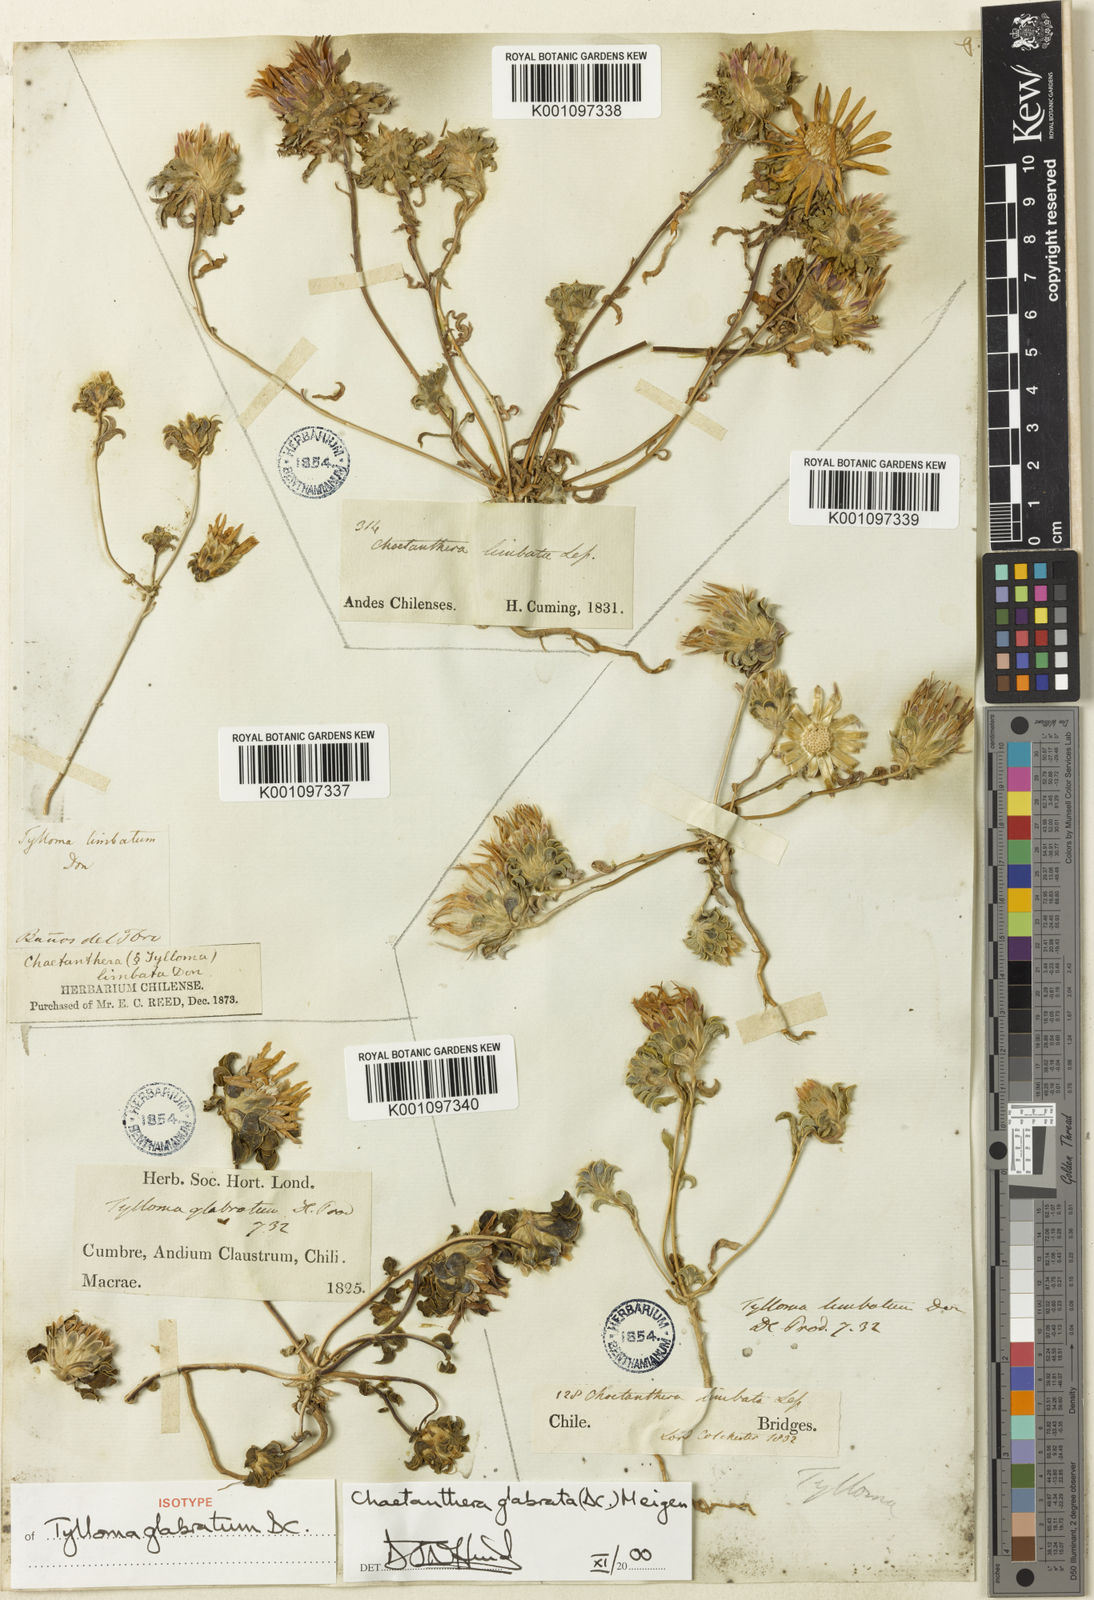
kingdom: Plantae
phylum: Tracheophyta
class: Magnoliopsida
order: Asterales
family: Asteraceae
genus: Chaetanthera
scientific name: Chaetanthera glabrata
